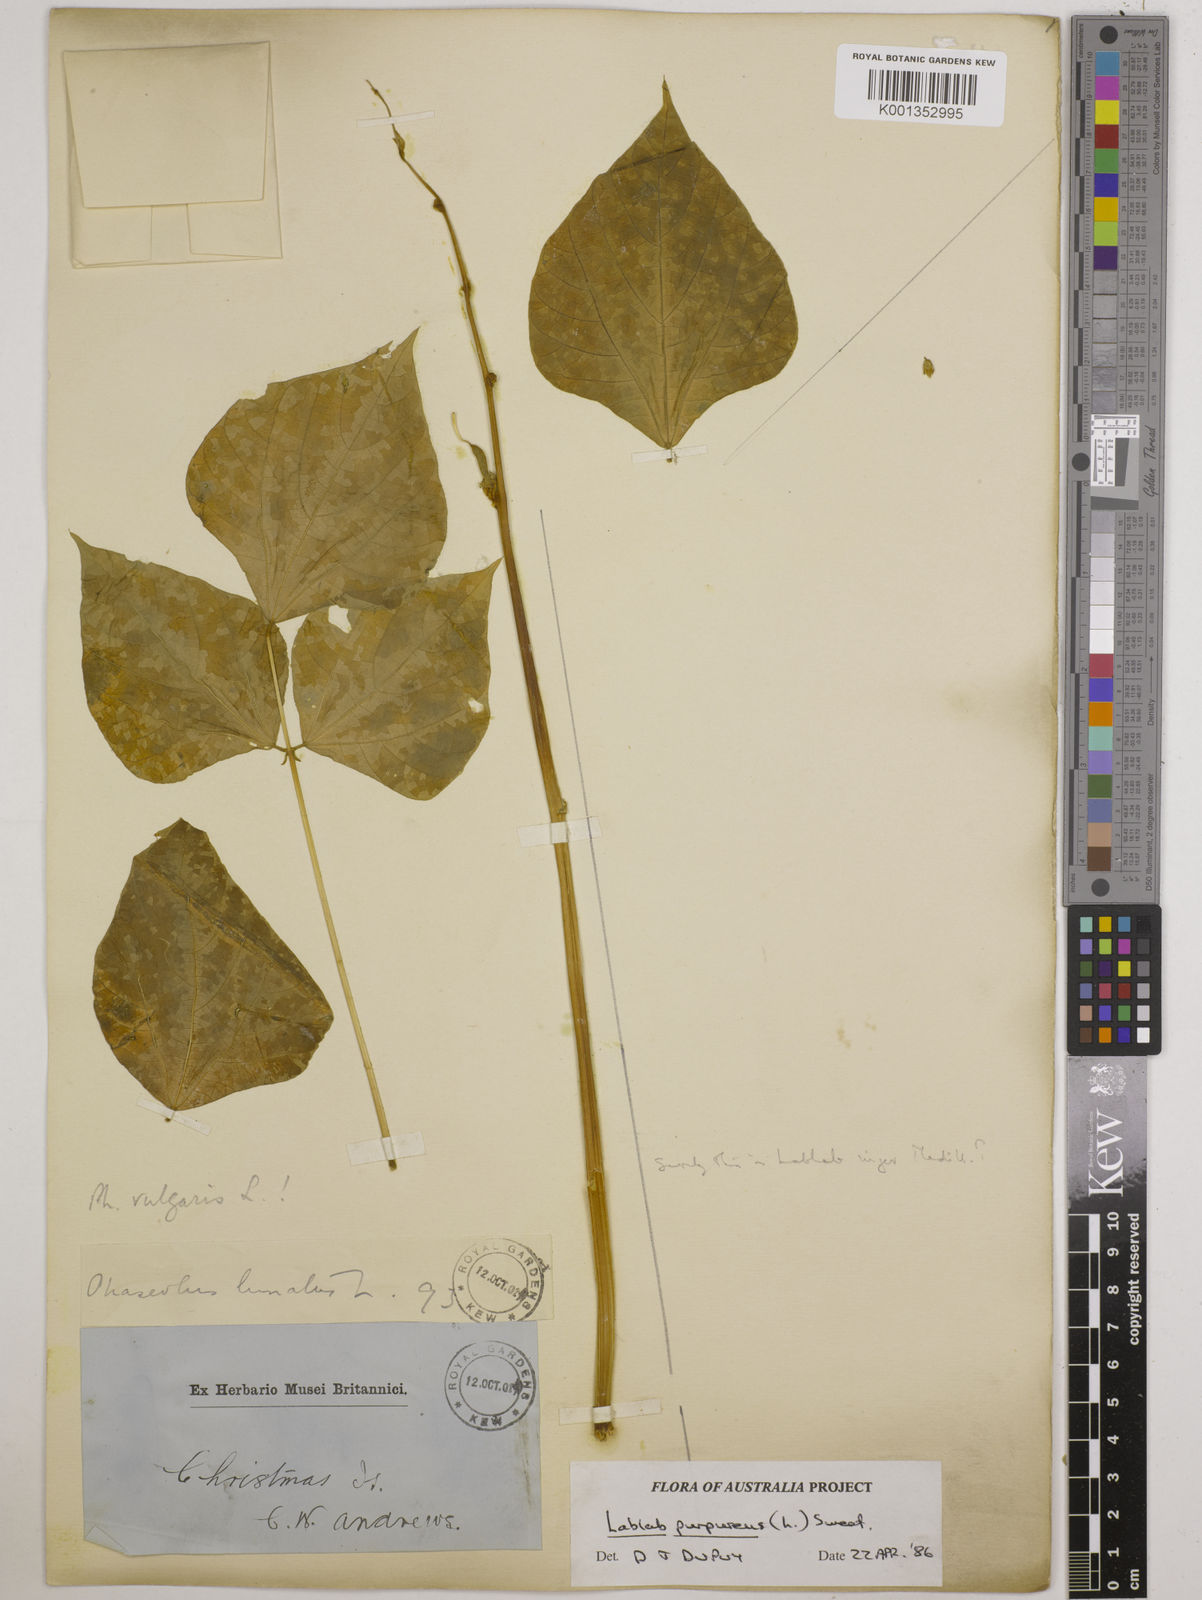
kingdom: Plantae
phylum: Tracheophyta
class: Magnoliopsida
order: Fabales
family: Fabaceae
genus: Lablab
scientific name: Lablab purpureus
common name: Lablab-bean
